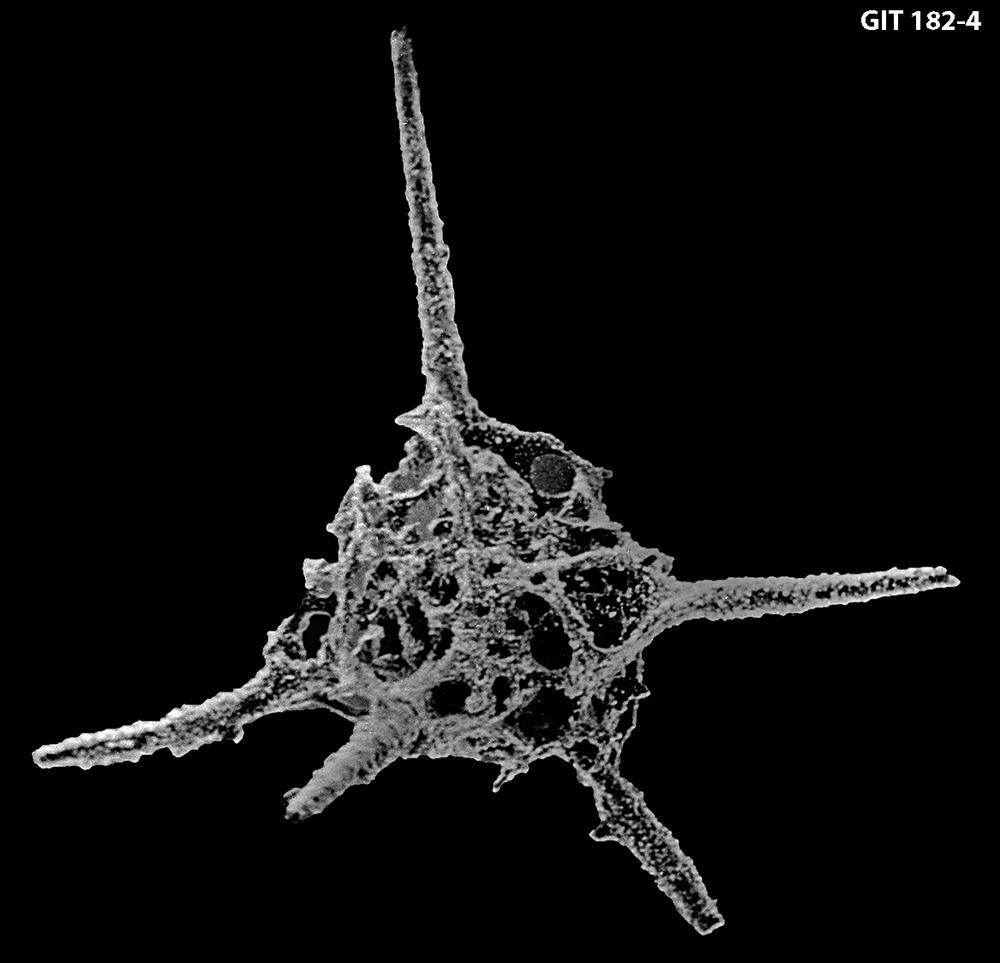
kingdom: Animalia
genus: Haplentactinia
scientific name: Haplentactinia
